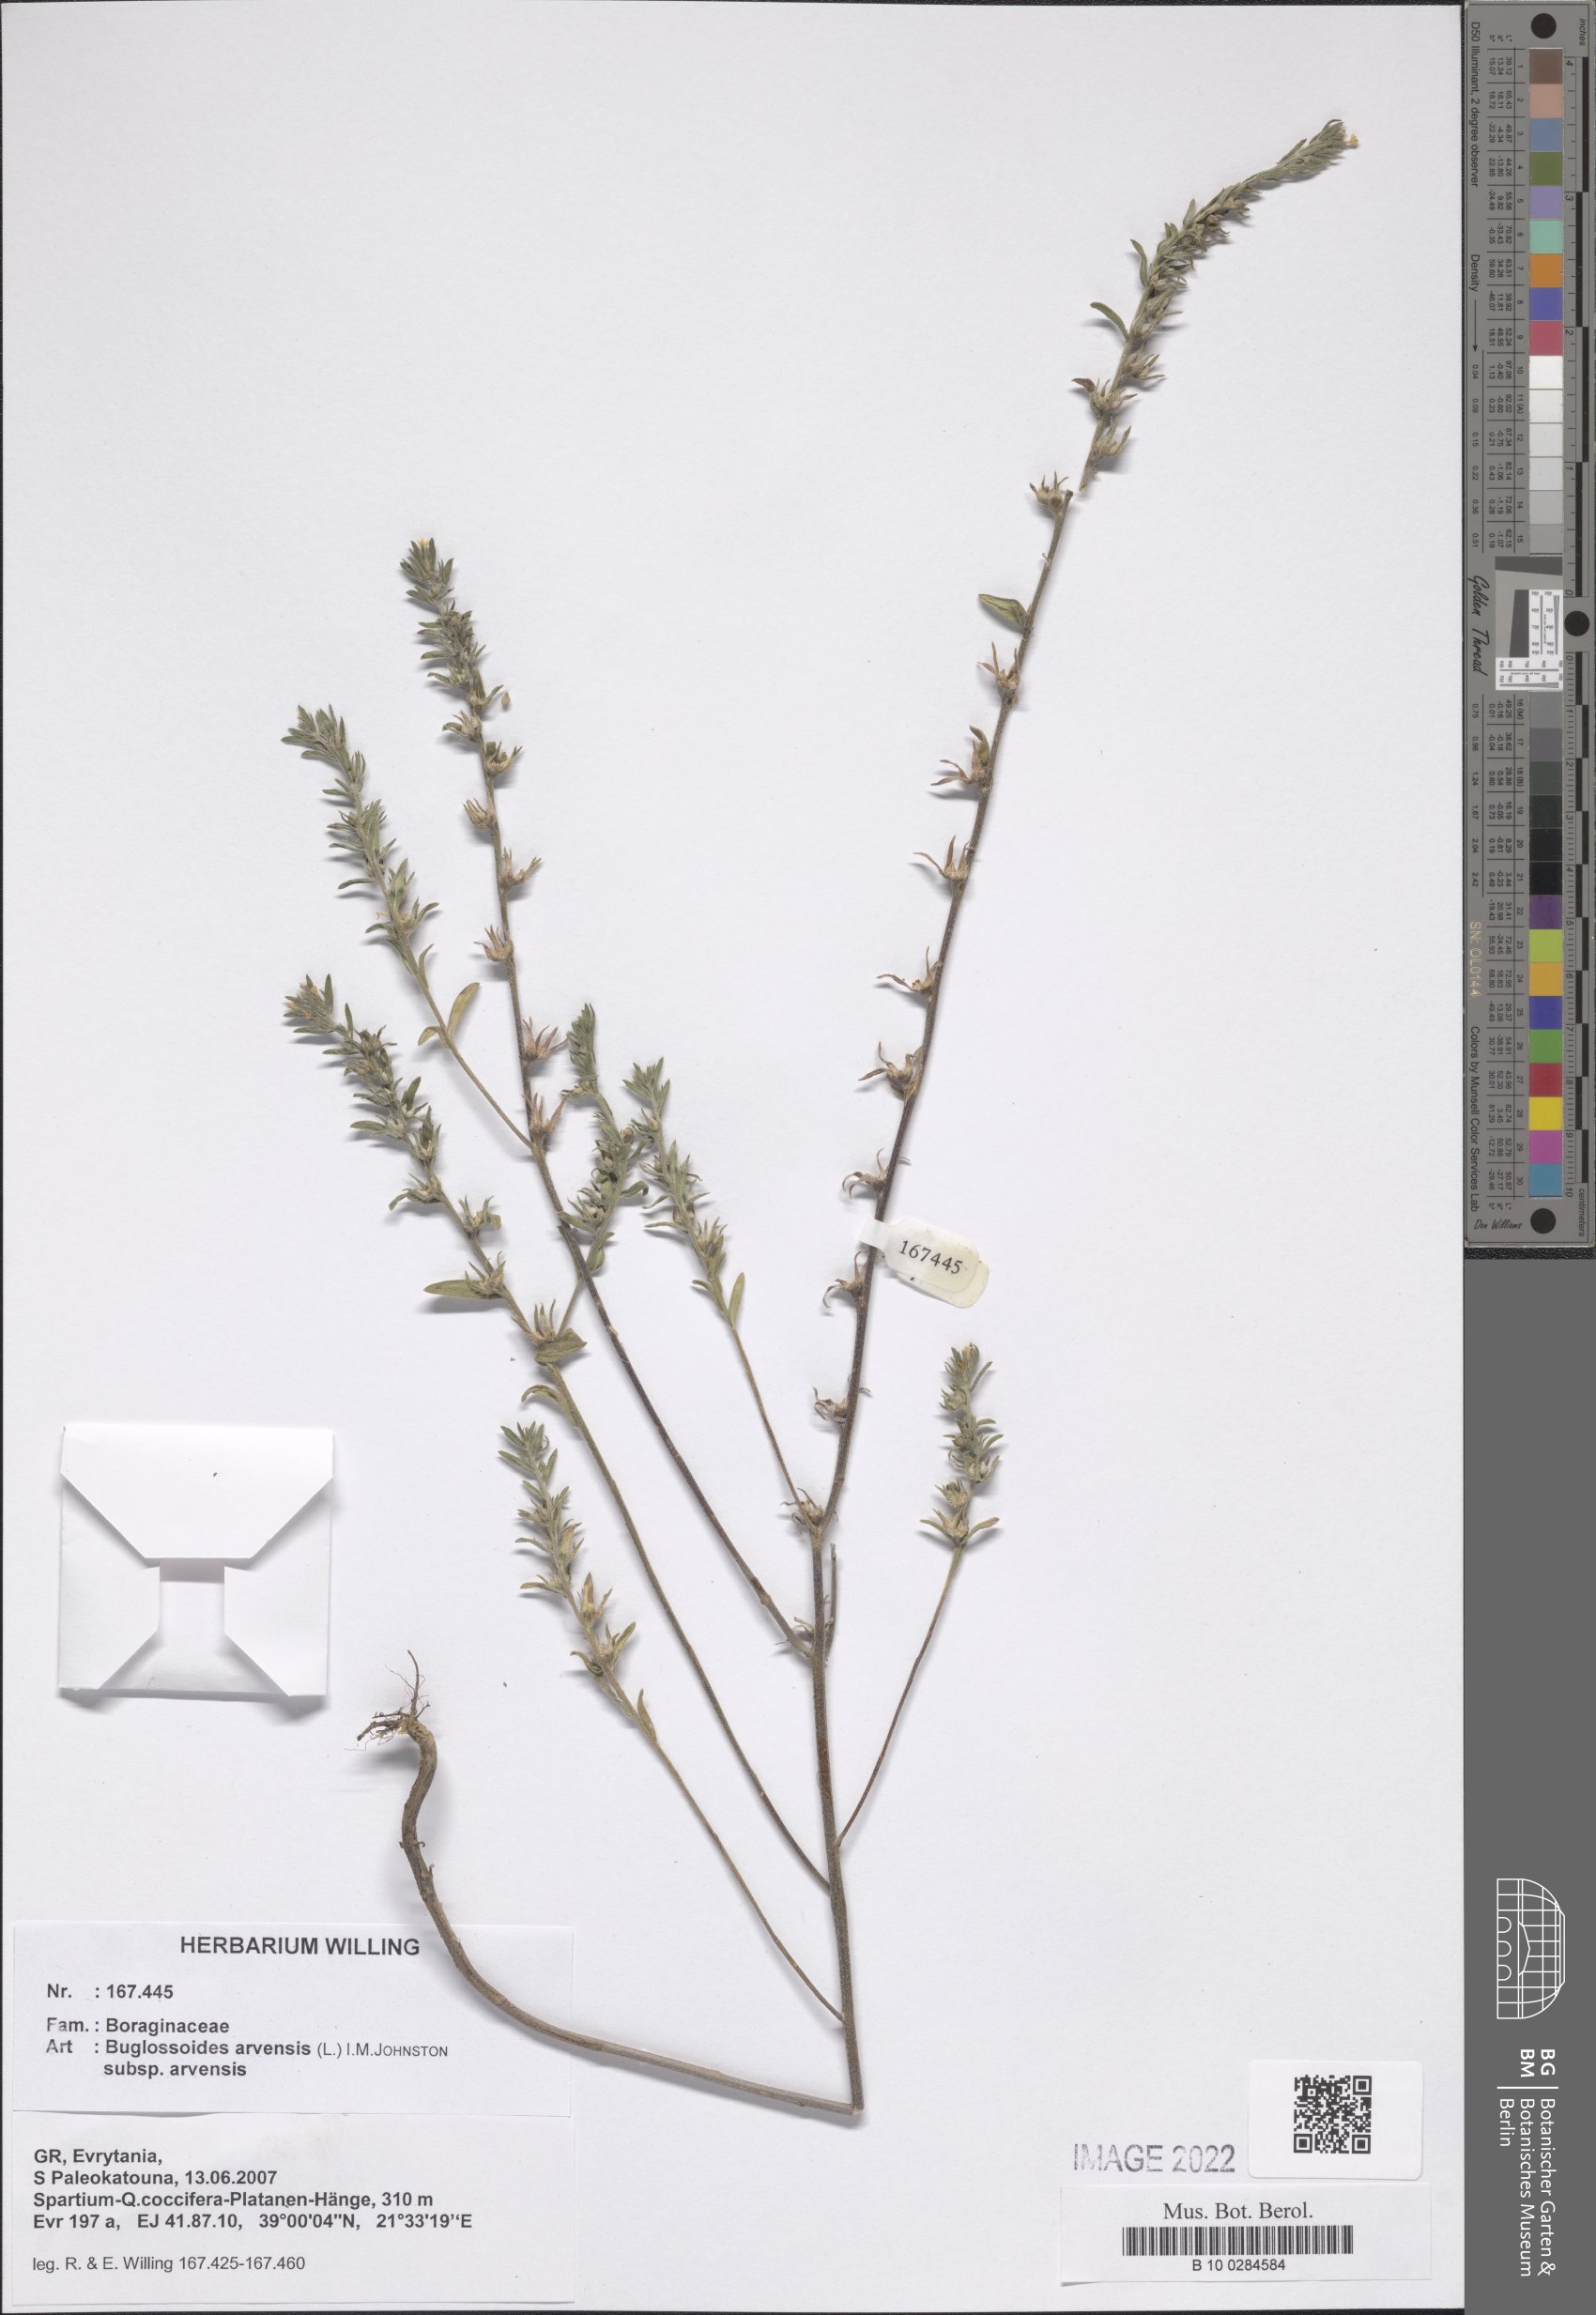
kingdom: Plantae
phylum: Tracheophyta
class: Magnoliopsida
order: Boraginales
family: Boraginaceae
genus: Buglossoides
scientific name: Buglossoides arvensis
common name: Corn gromwell
